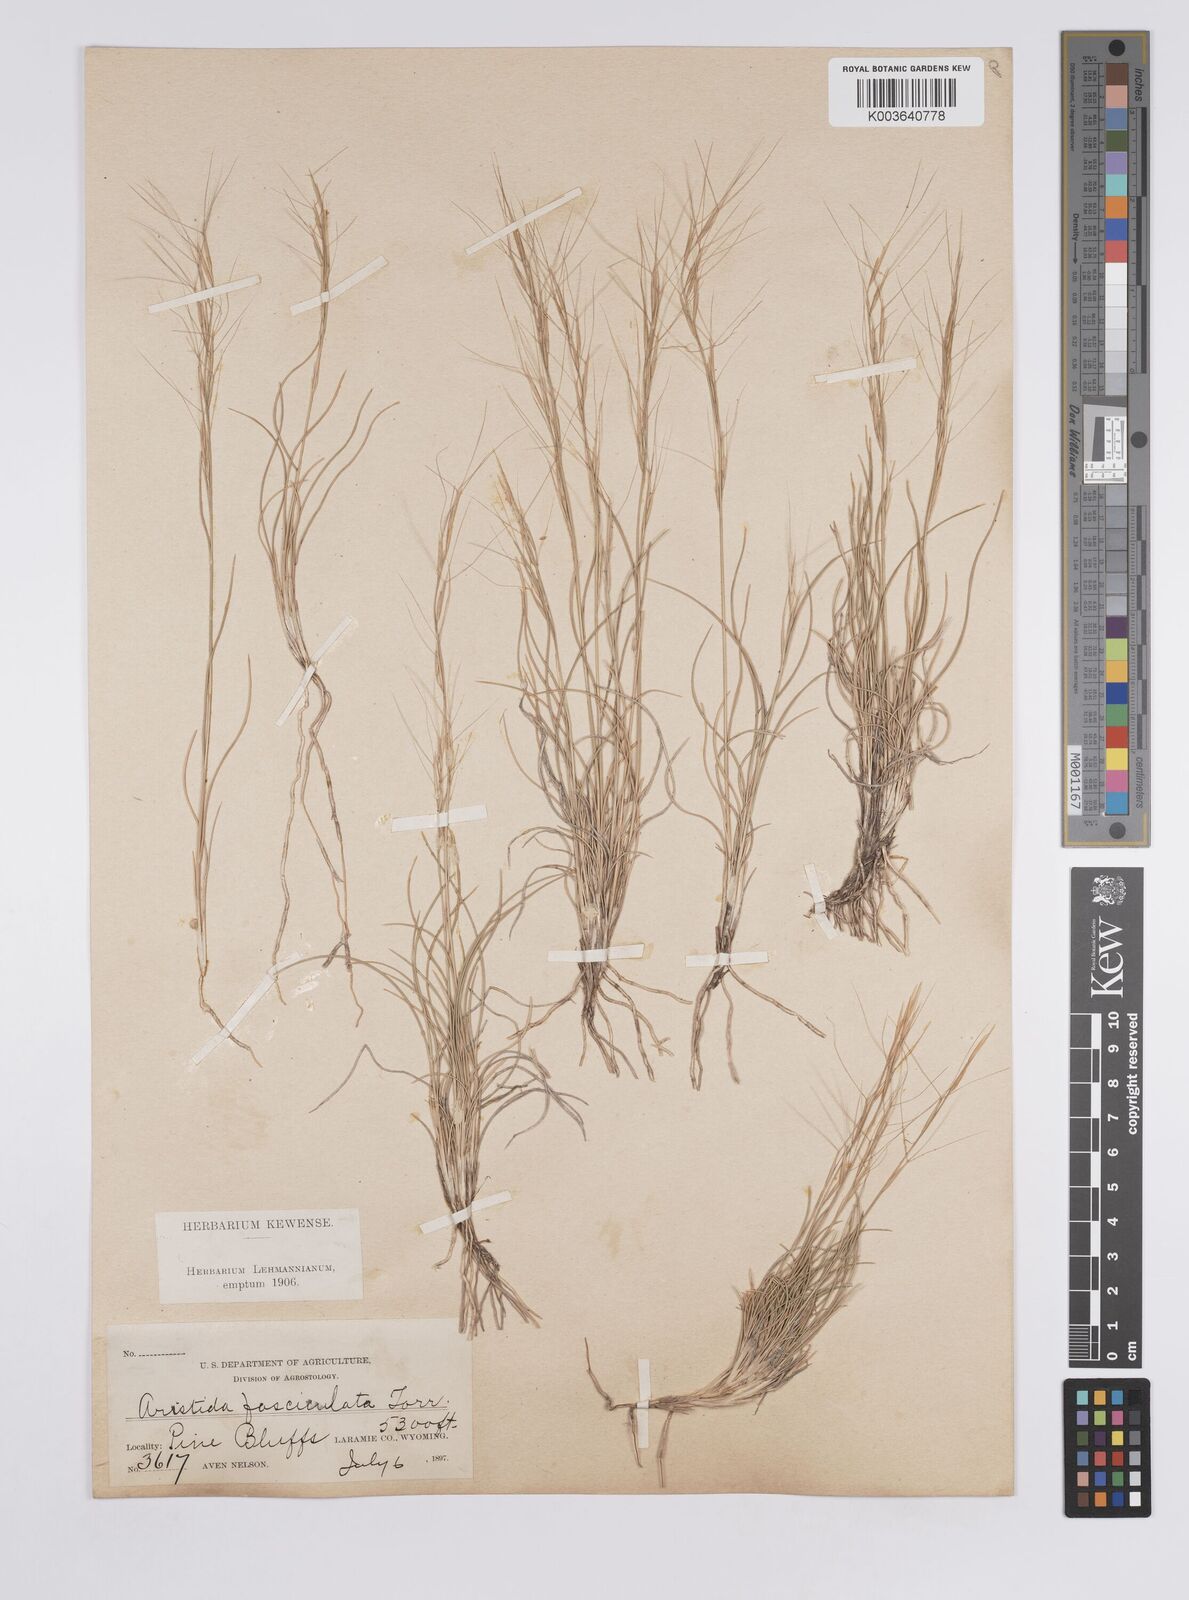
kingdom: Plantae
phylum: Tracheophyta
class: Liliopsida
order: Poales
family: Poaceae
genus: Aristida
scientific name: Aristida adscensionis
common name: Sixweeks threeawn
